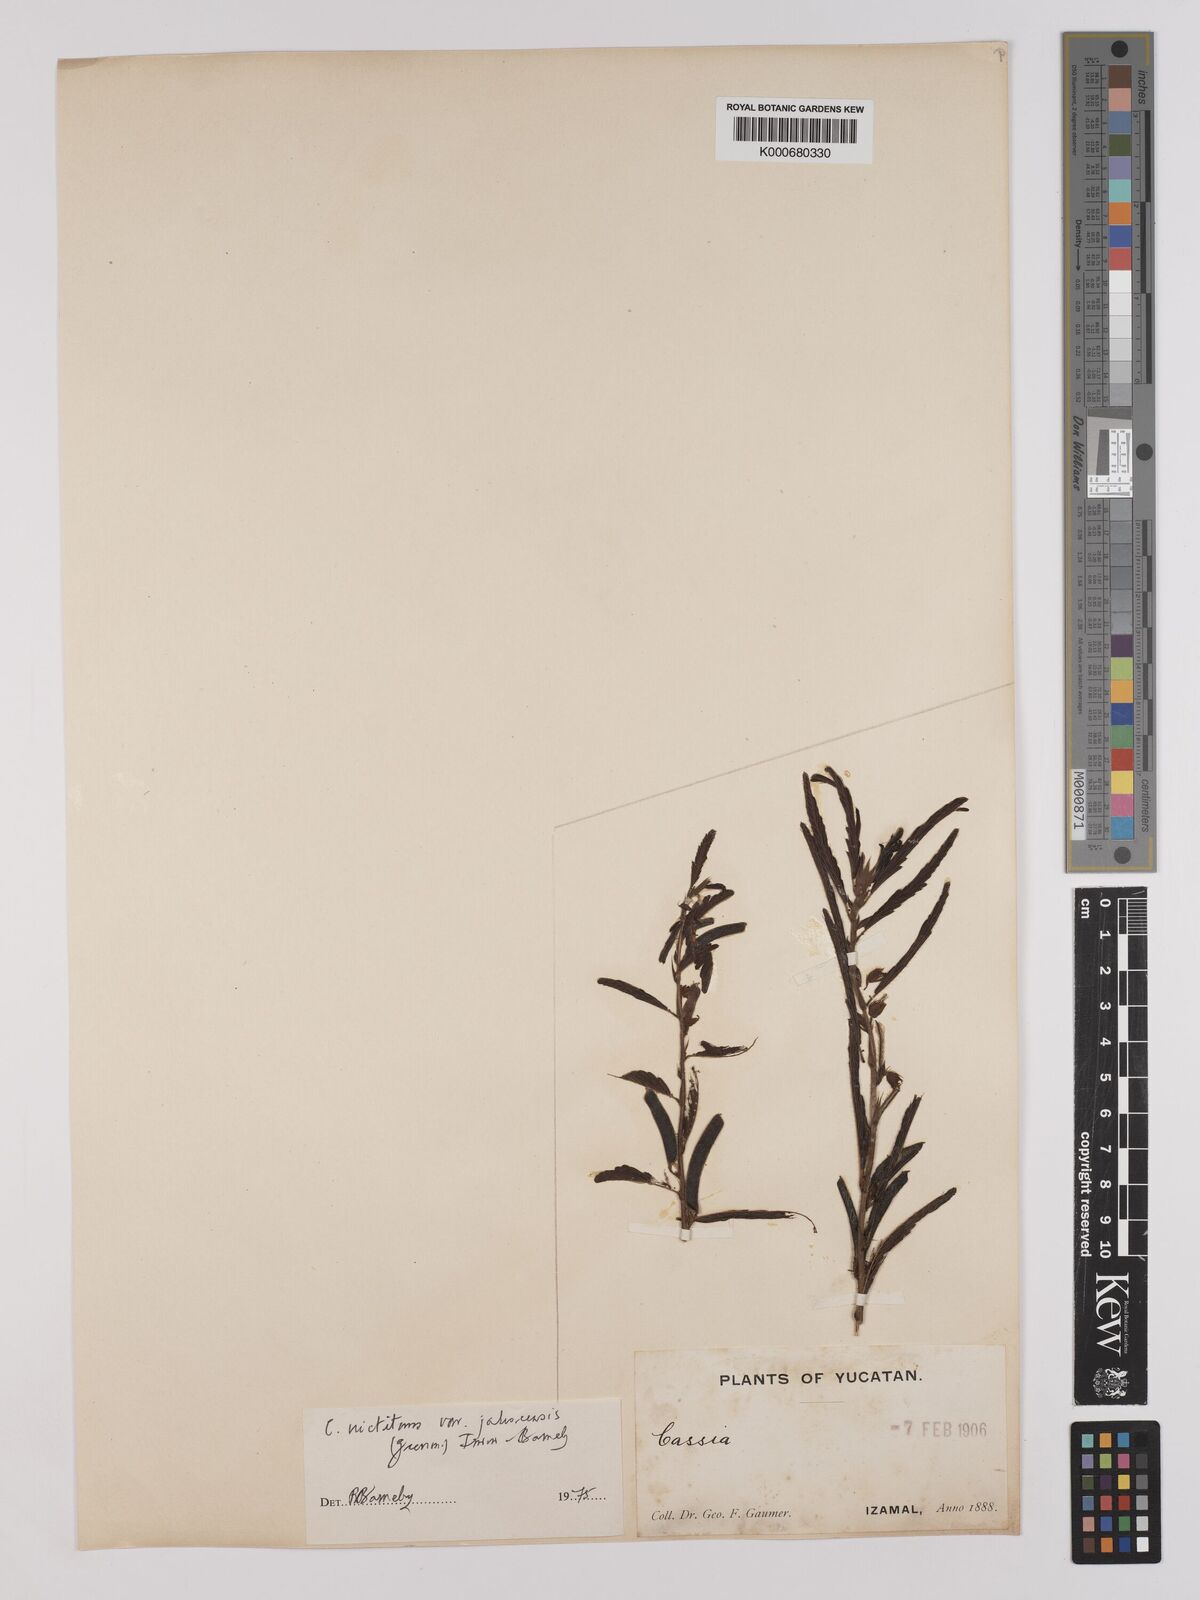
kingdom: Plantae
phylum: Tracheophyta
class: Magnoliopsida
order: Fabales
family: Fabaceae
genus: Chamaecrista
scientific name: Chamaecrista nictitans
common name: Sensitive cassia
